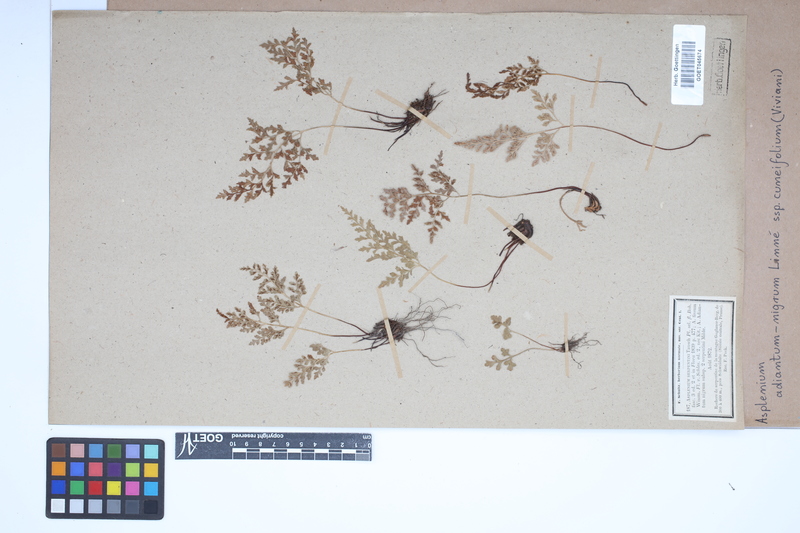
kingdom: Plantae
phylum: Tracheophyta
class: Polypodiopsida
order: Polypodiales
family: Aspleniaceae
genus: Asplenium
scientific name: Asplenium cuneifolium
